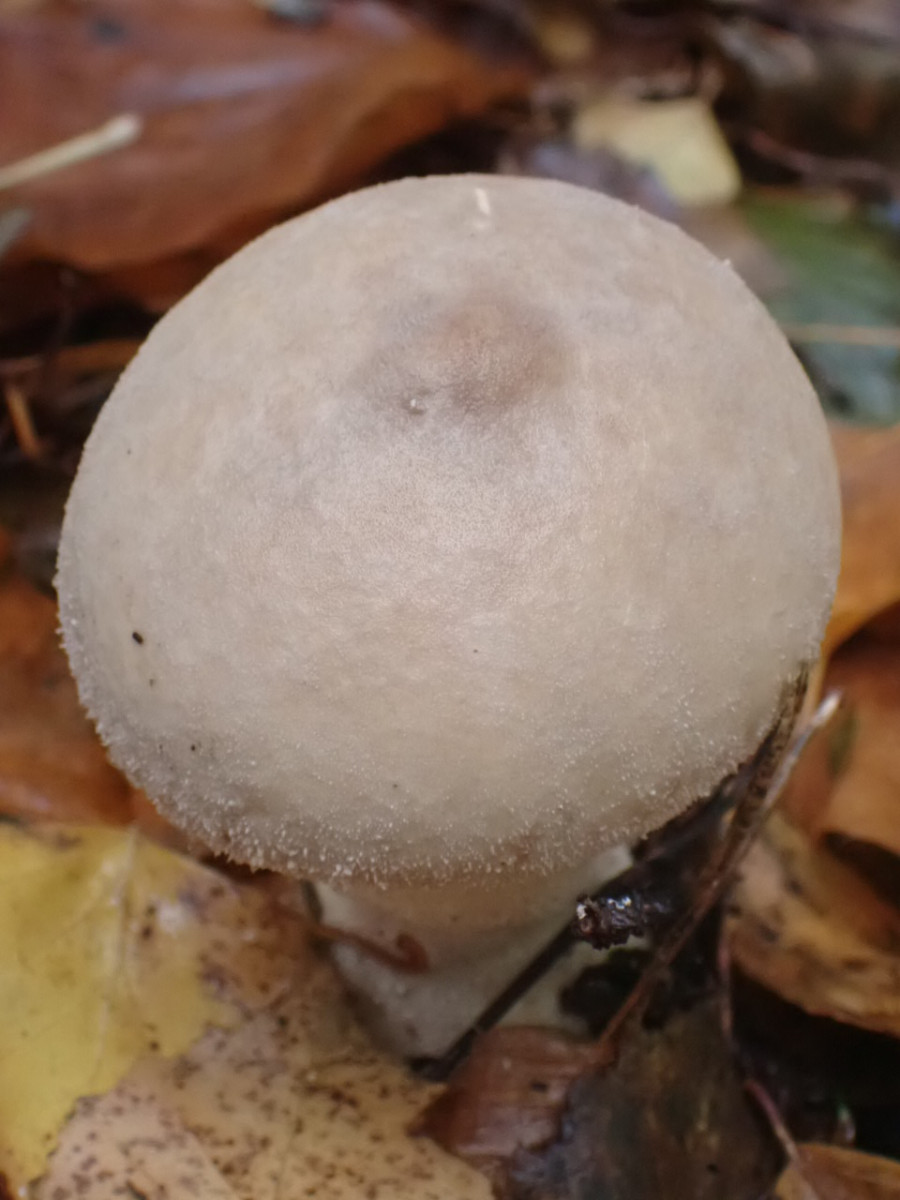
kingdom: Fungi
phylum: Basidiomycota
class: Agaricomycetes
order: Agaricales
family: Lycoperdaceae
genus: Lycoperdon
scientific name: Lycoperdon excipuliforme
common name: højstokket støvbold
